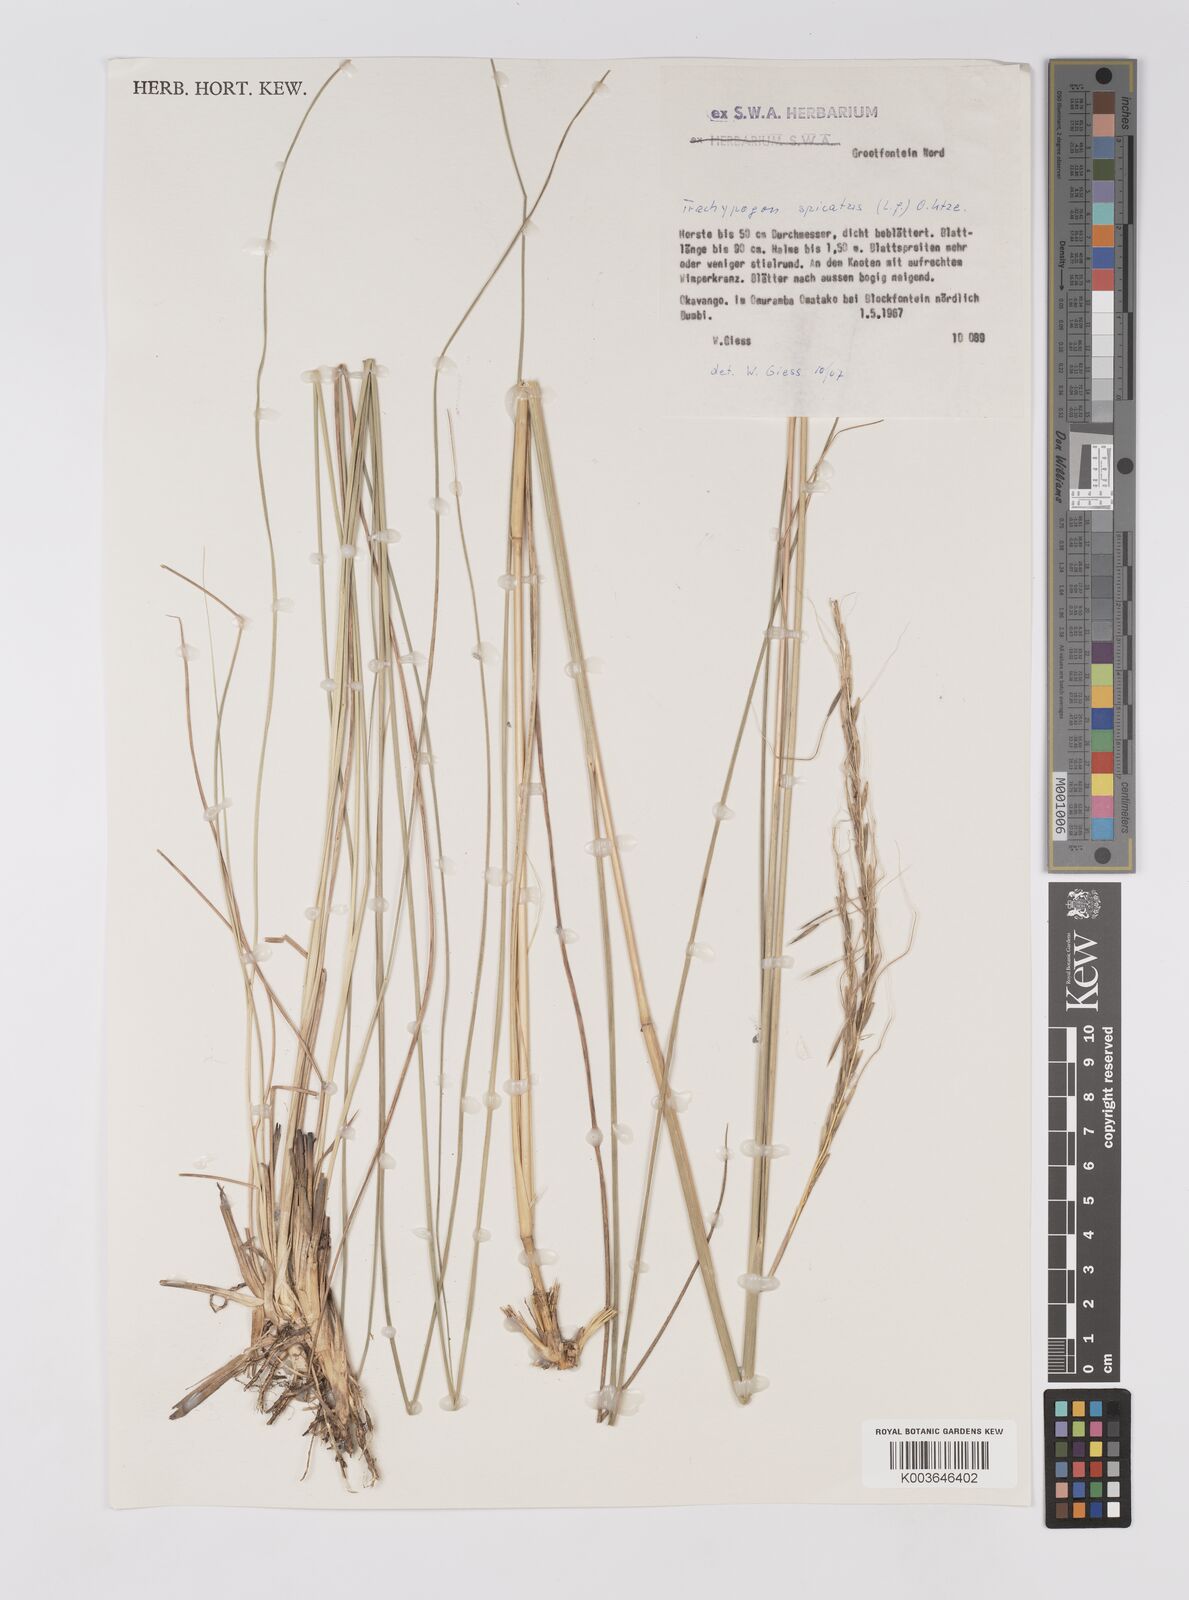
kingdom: Plantae
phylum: Tracheophyta
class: Liliopsida
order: Poales
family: Poaceae
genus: Trachypogon
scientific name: Trachypogon spicatus
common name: Crinkle-awn
